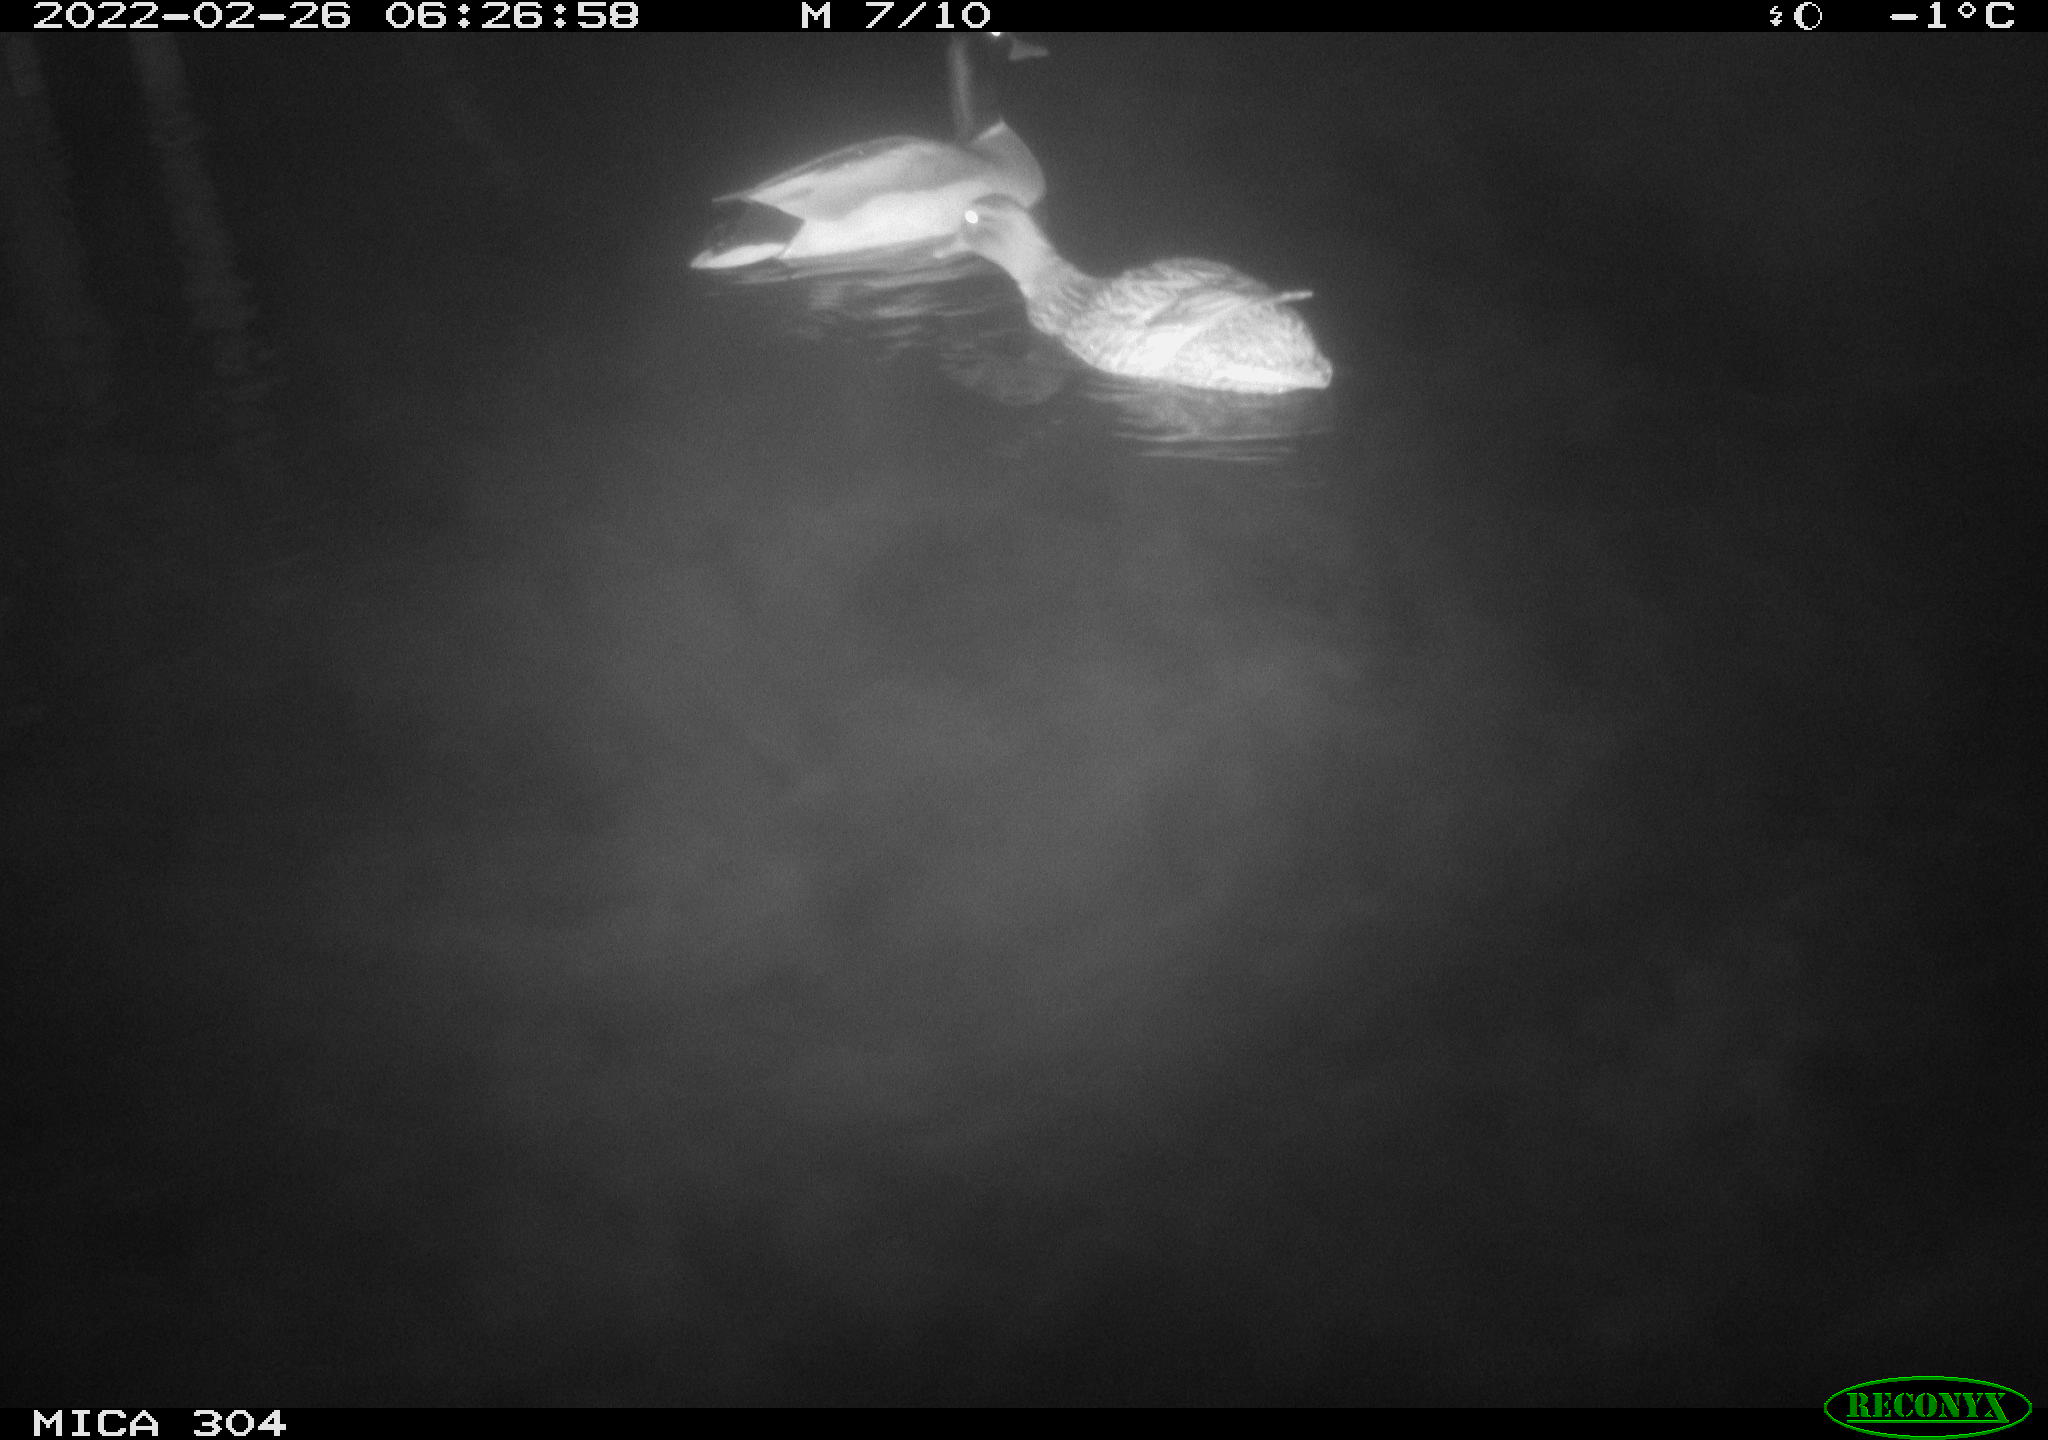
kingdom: Animalia
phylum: Chordata
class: Aves
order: Anseriformes
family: Anatidae
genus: Anas
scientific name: Anas platyrhynchos
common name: Mallard
